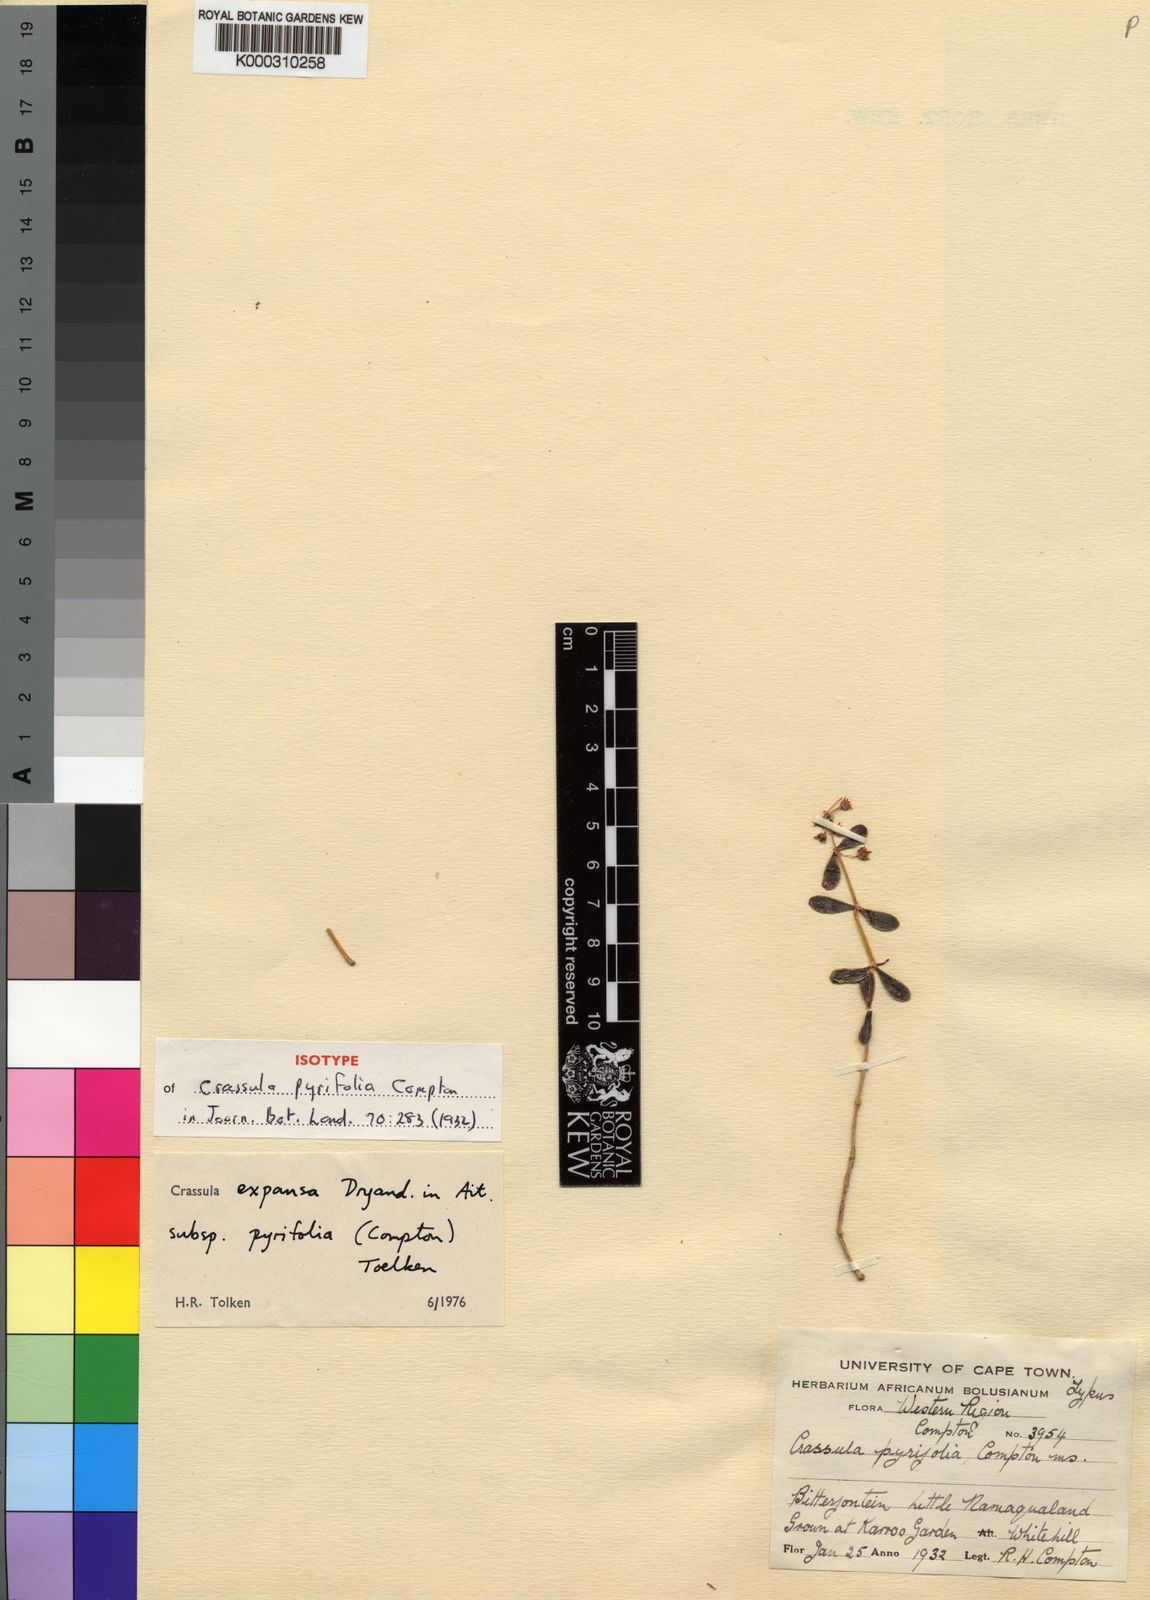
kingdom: Plantae
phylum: Tracheophyta
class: Magnoliopsida
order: Saxifragales
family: Crassulaceae
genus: Crassula
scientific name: Crassula expansa
